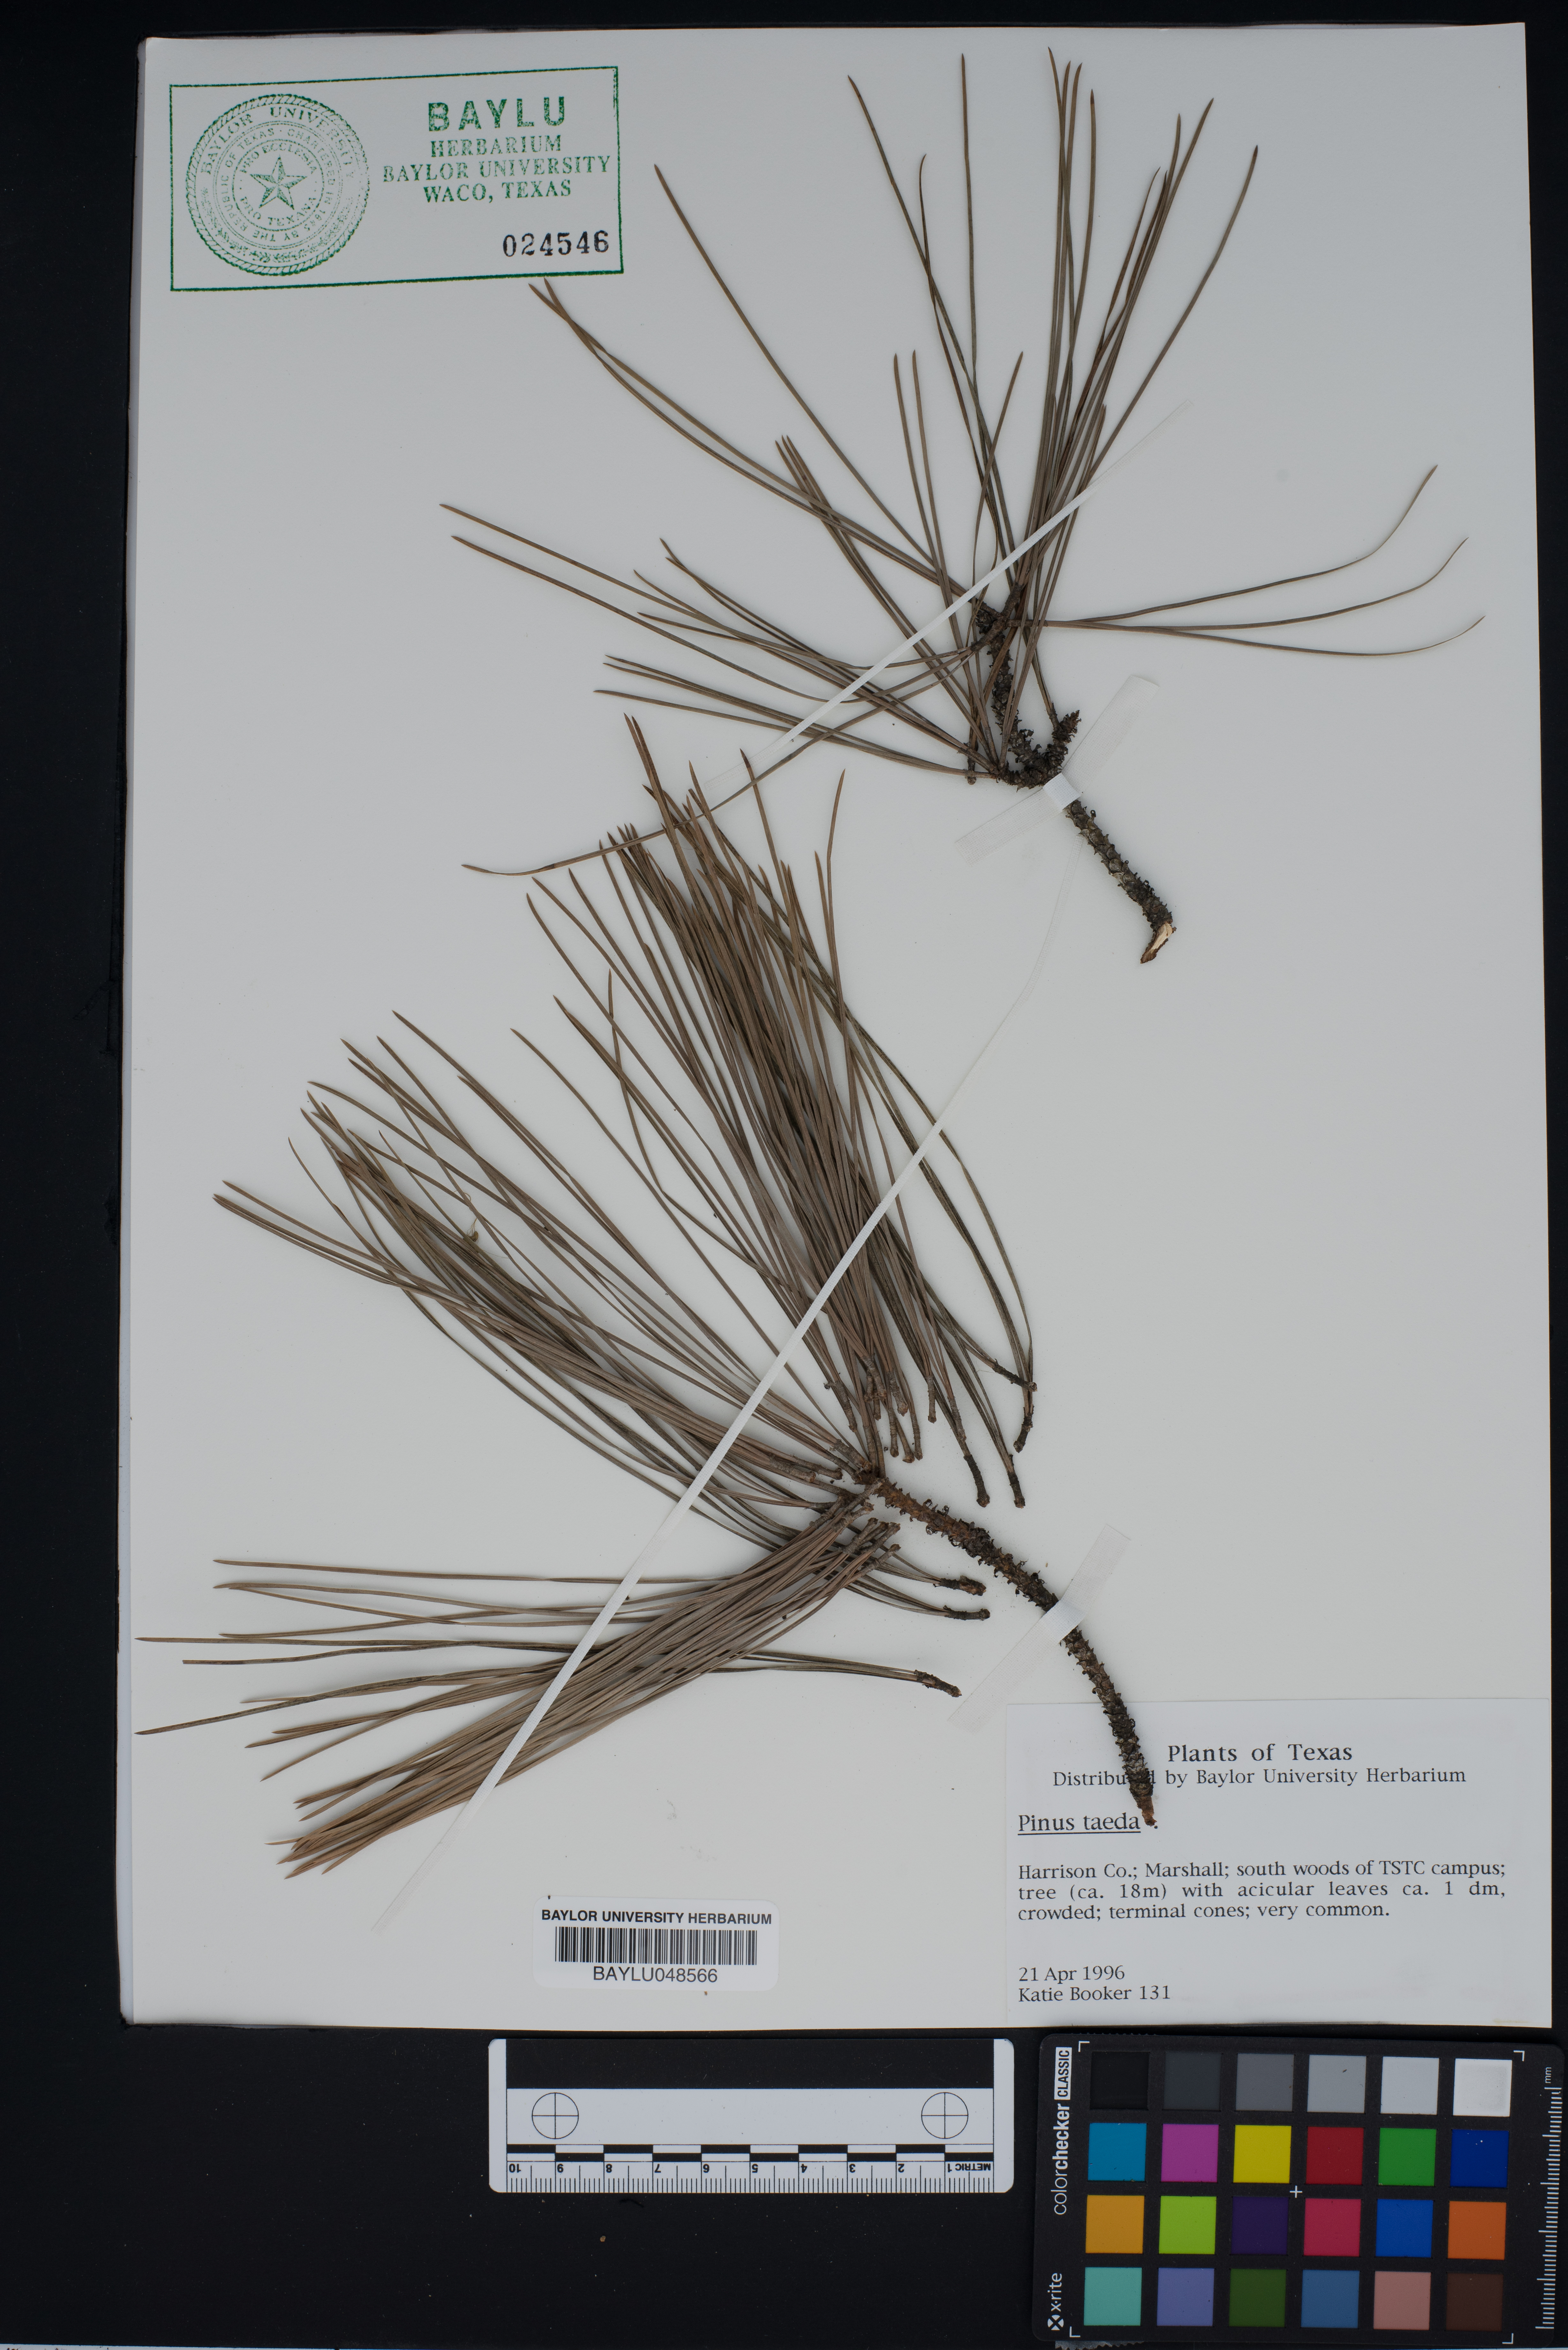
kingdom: Plantae
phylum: Tracheophyta
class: Pinopsida
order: Pinales
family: Pinaceae
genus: Pinus
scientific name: Pinus taeda
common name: Loblolly pine
